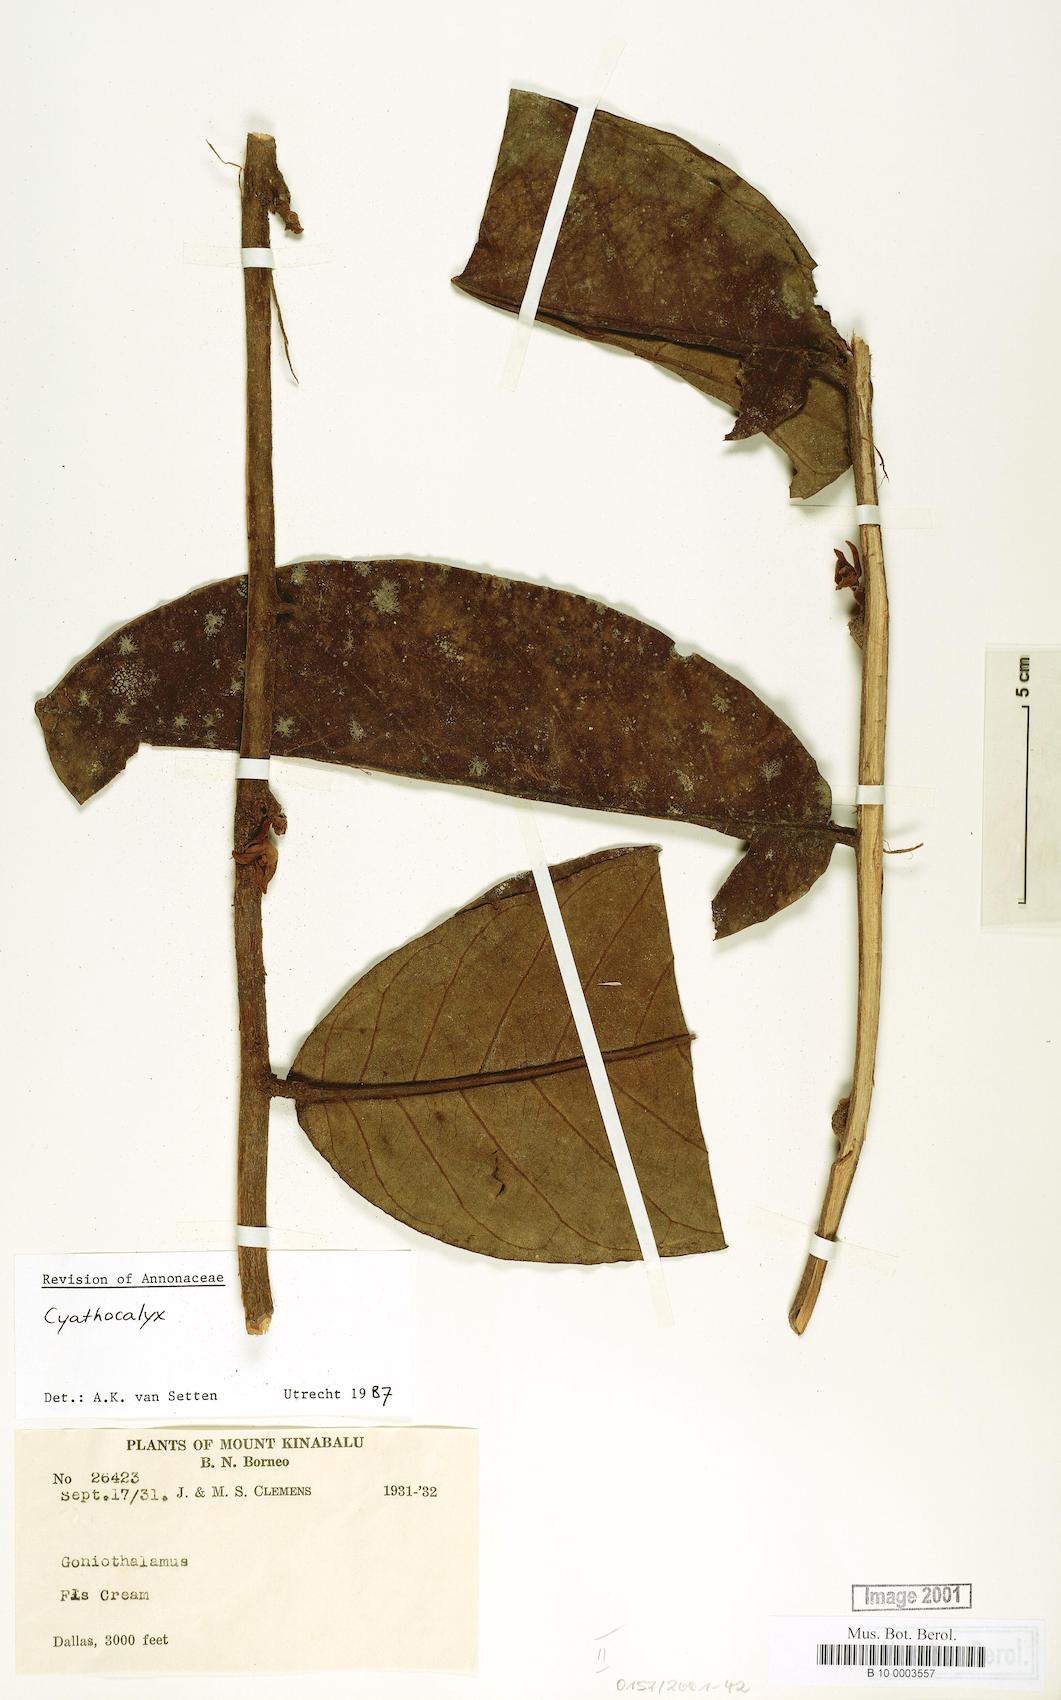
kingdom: Plantae
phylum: Tracheophyta
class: Magnoliopsida
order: Magnoliales
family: Annonaceae
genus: Cyathocalyx
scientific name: Cyathocalyx
